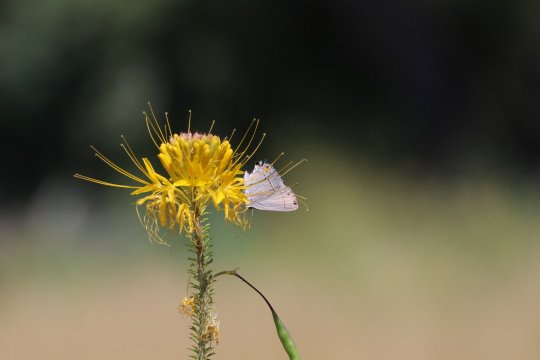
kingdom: Animalia
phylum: Arthropoda
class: Insecta
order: Lepidoptera
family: Lycaenidae
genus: Strymon
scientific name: Strymon melinus
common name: Gray Hairstreak
